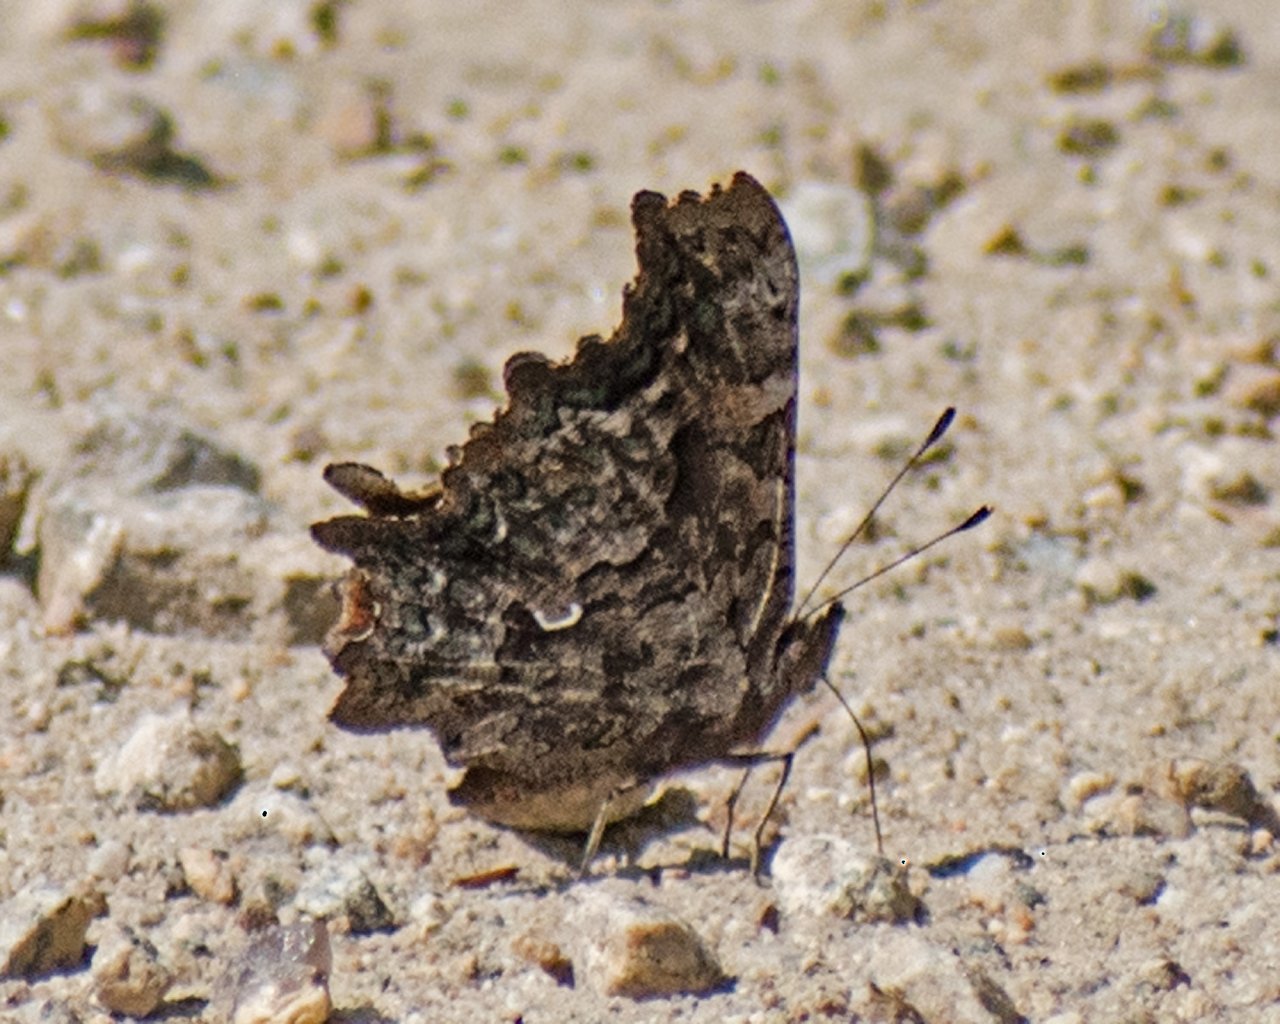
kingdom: Animalia
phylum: Arthropoda
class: Insecta
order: Lepidoptera
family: Nymphalidae
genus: Polygonia
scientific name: Polygonia faunus
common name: Green Comma
